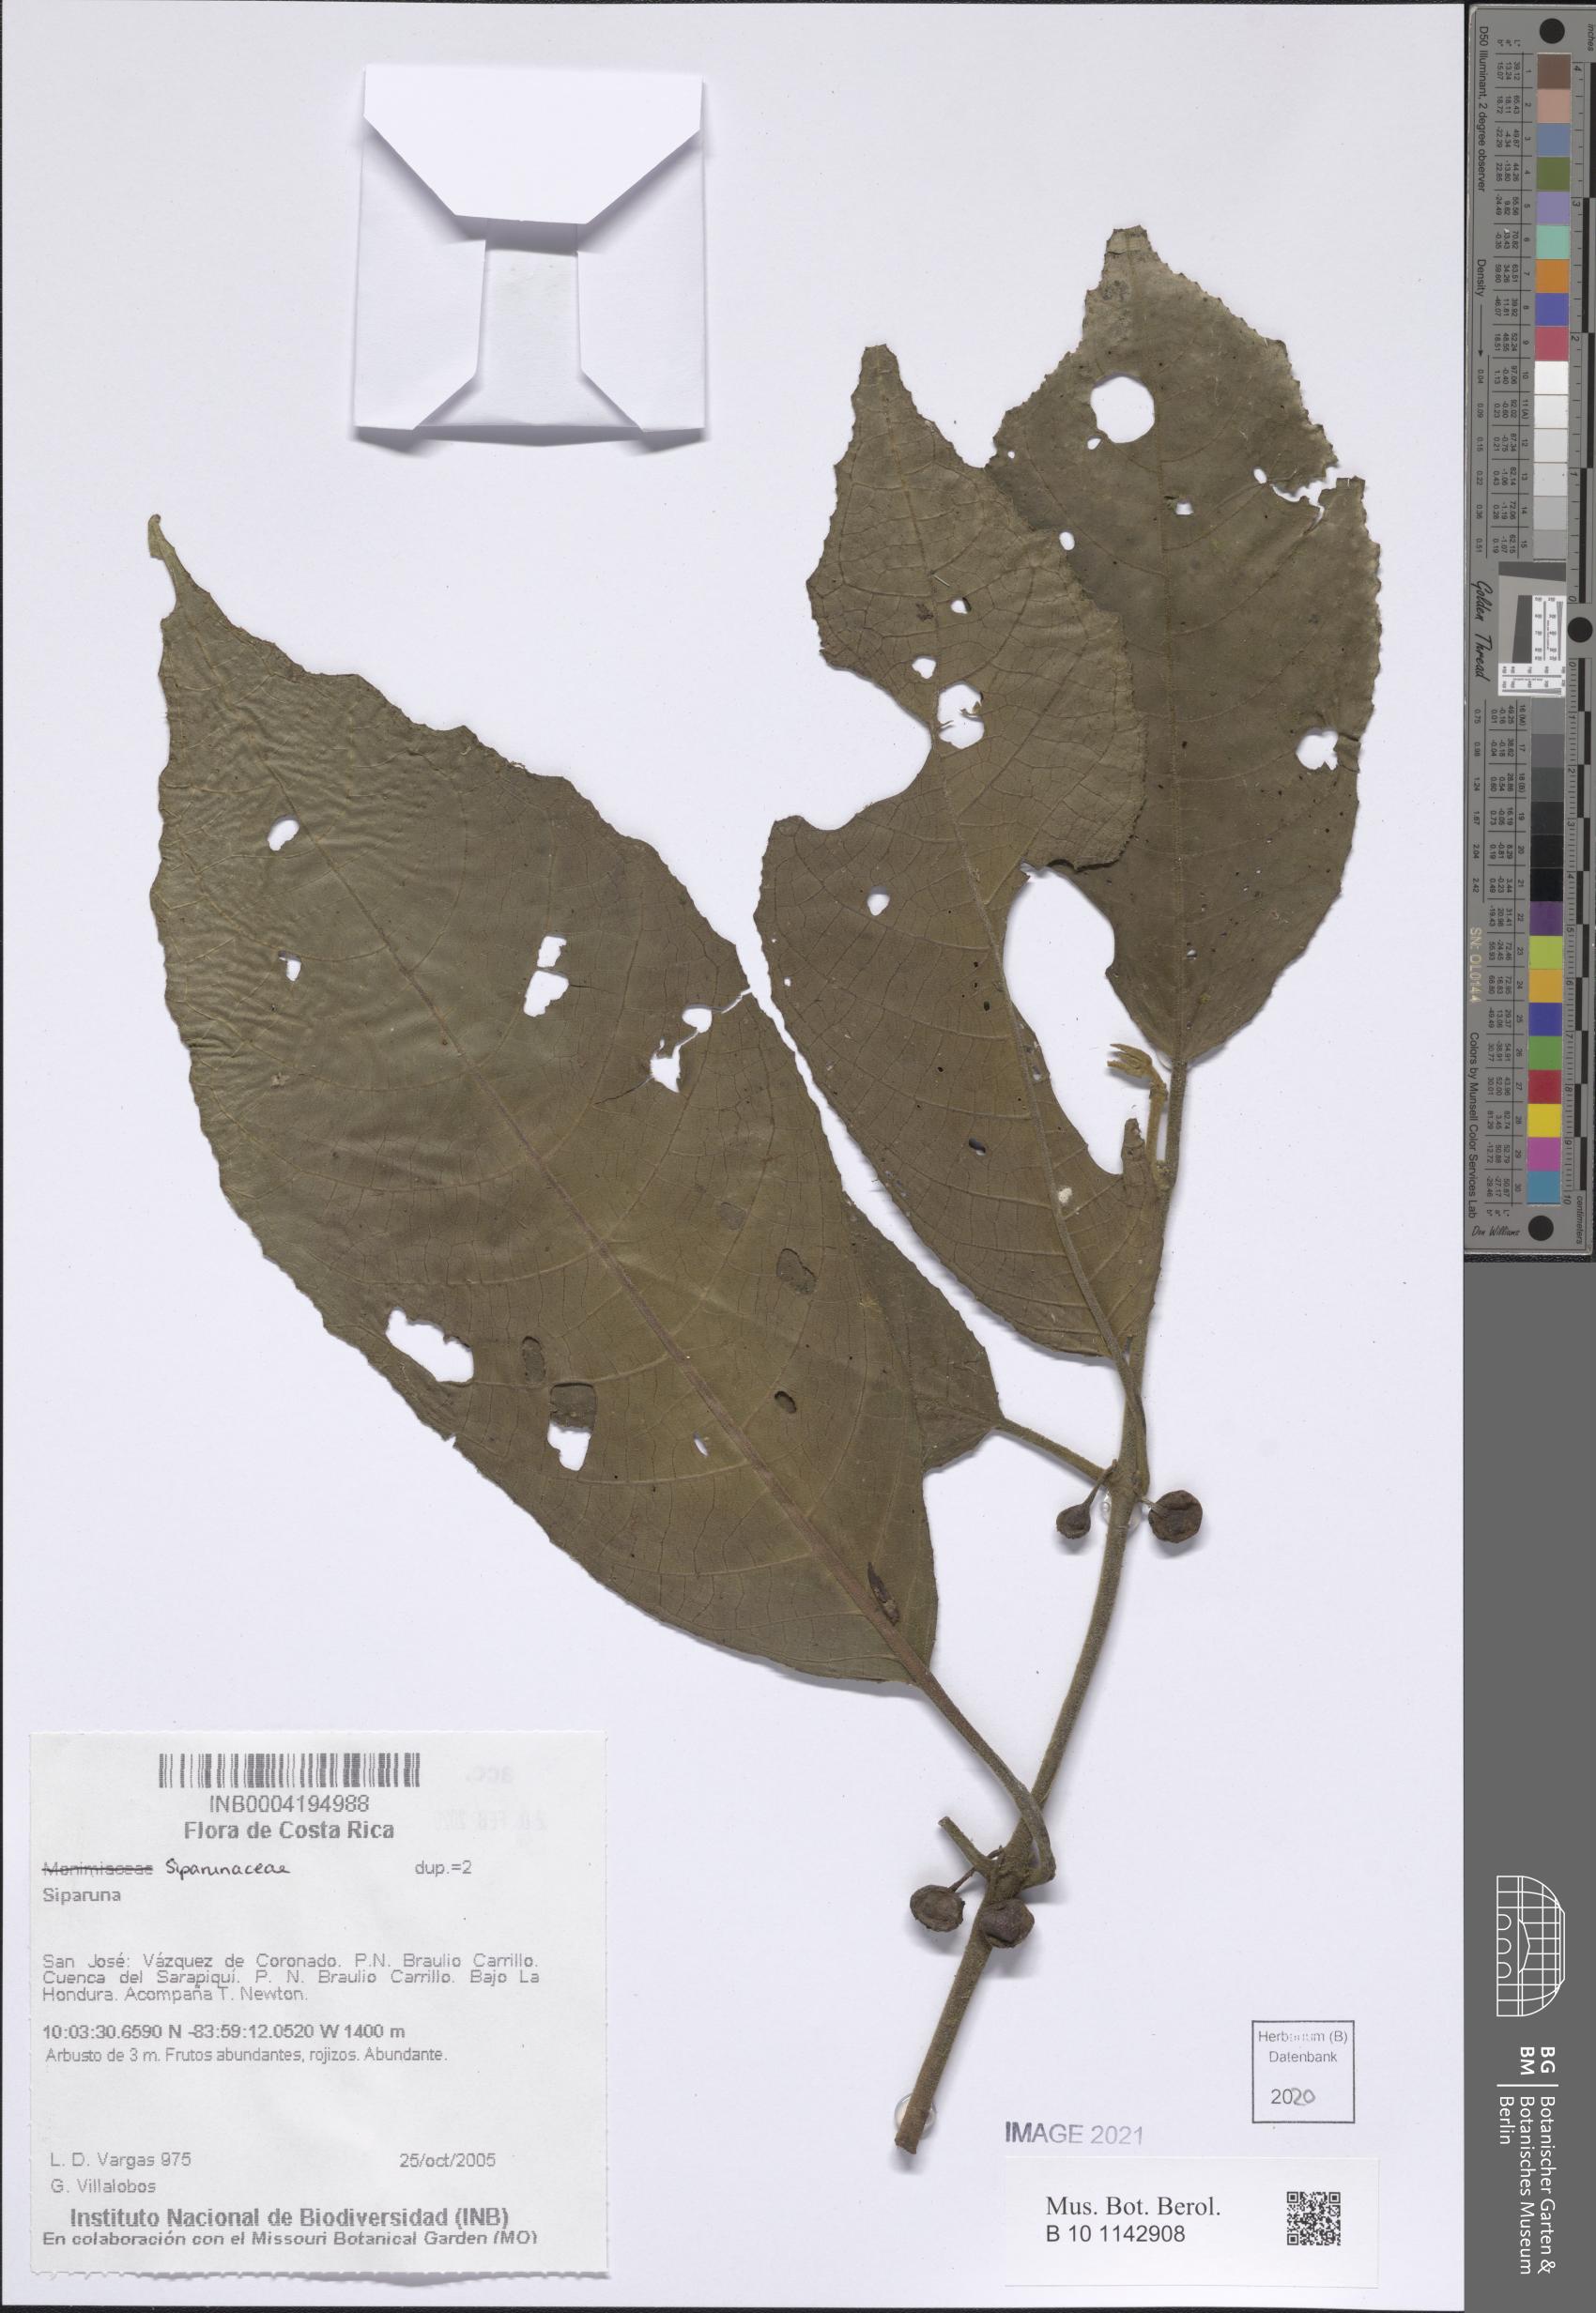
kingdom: Plantae
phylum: Tracheophyta
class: Magnoliopsida
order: Laurales
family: Siparunaceae
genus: Siparuna
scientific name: Siparuna
